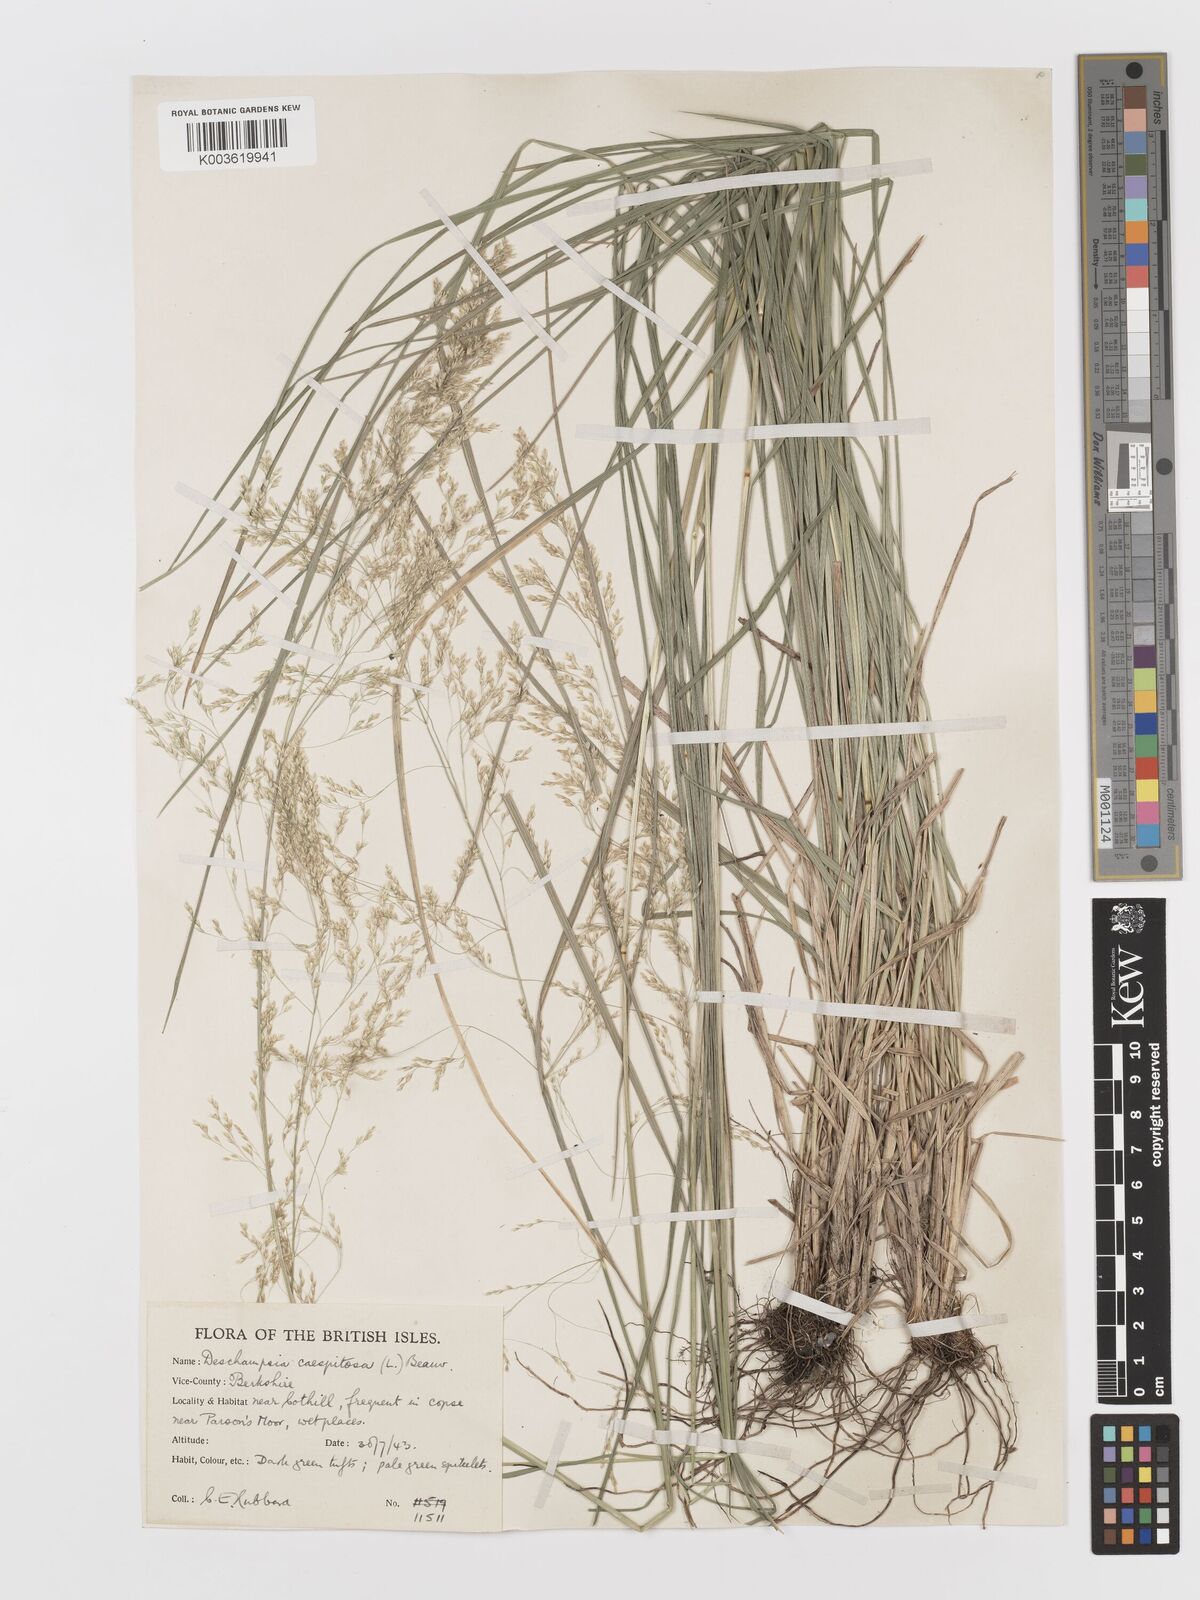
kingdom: Plantae
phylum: Tracheophyta
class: Liliopsida
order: Poales
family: Poaceae
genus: Deschampsia
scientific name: Deschampsia
